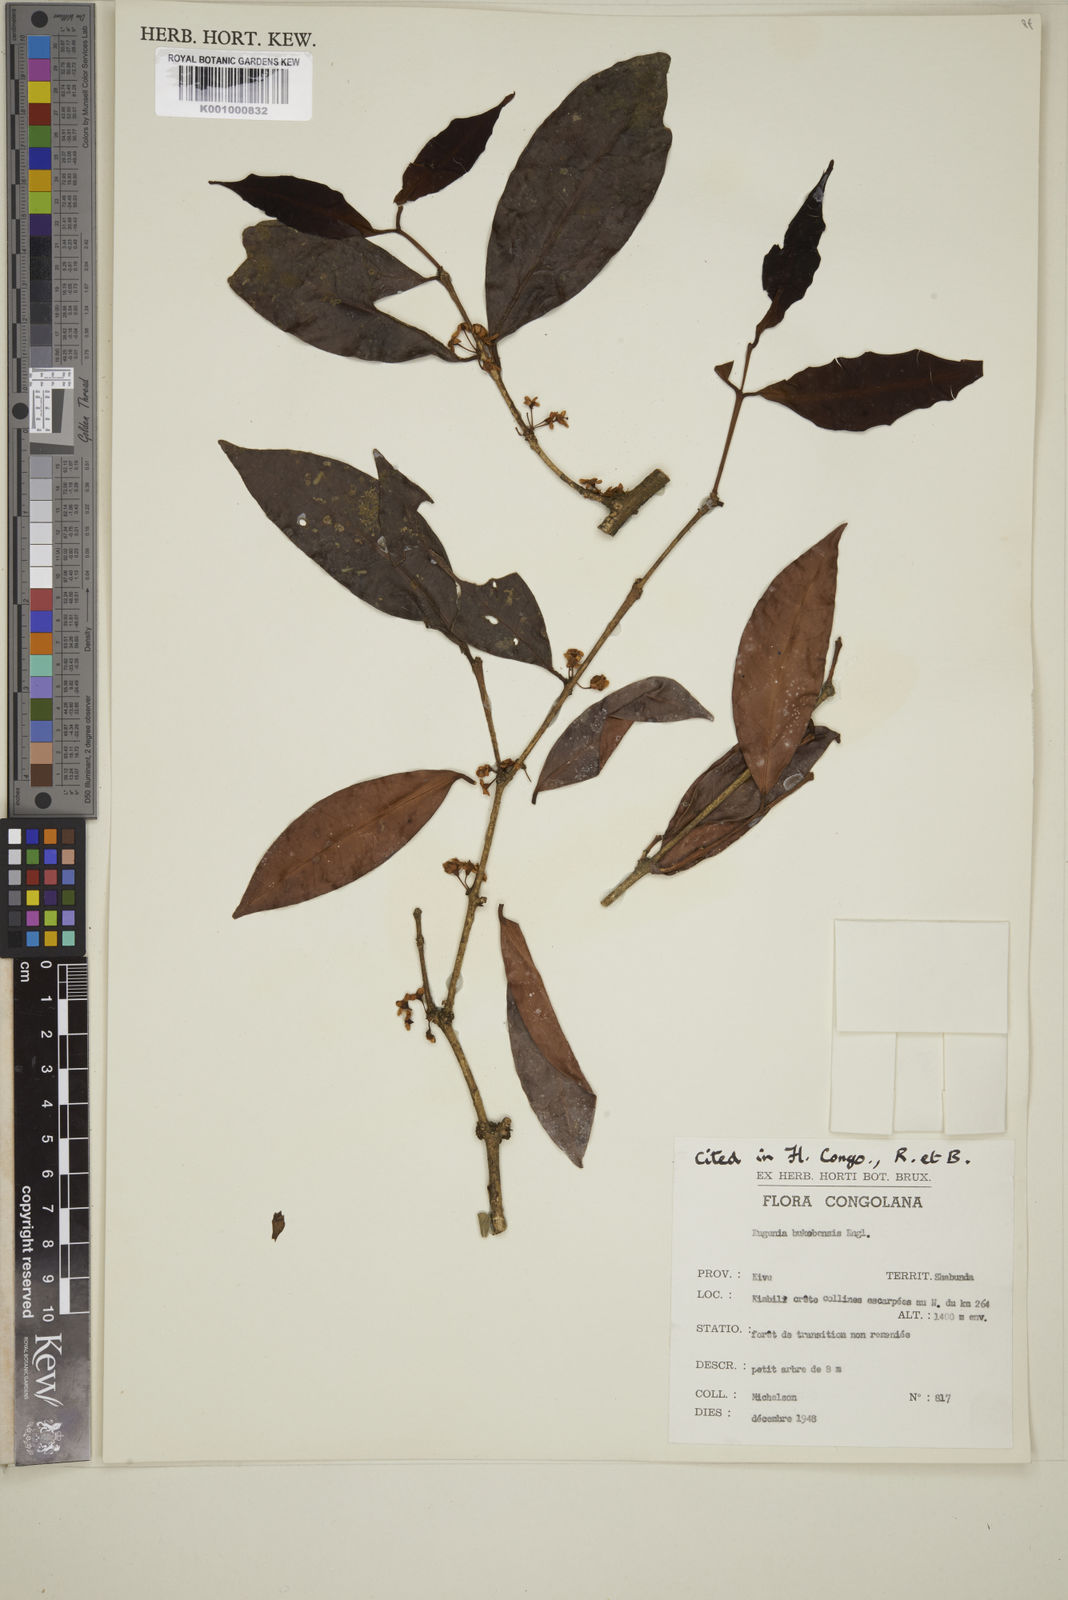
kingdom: Plantae
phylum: Tracheophyta
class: Magnoliopsida
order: Myrtales
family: Myrtaceae
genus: Eugenia
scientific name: Eugenia bukobensis
